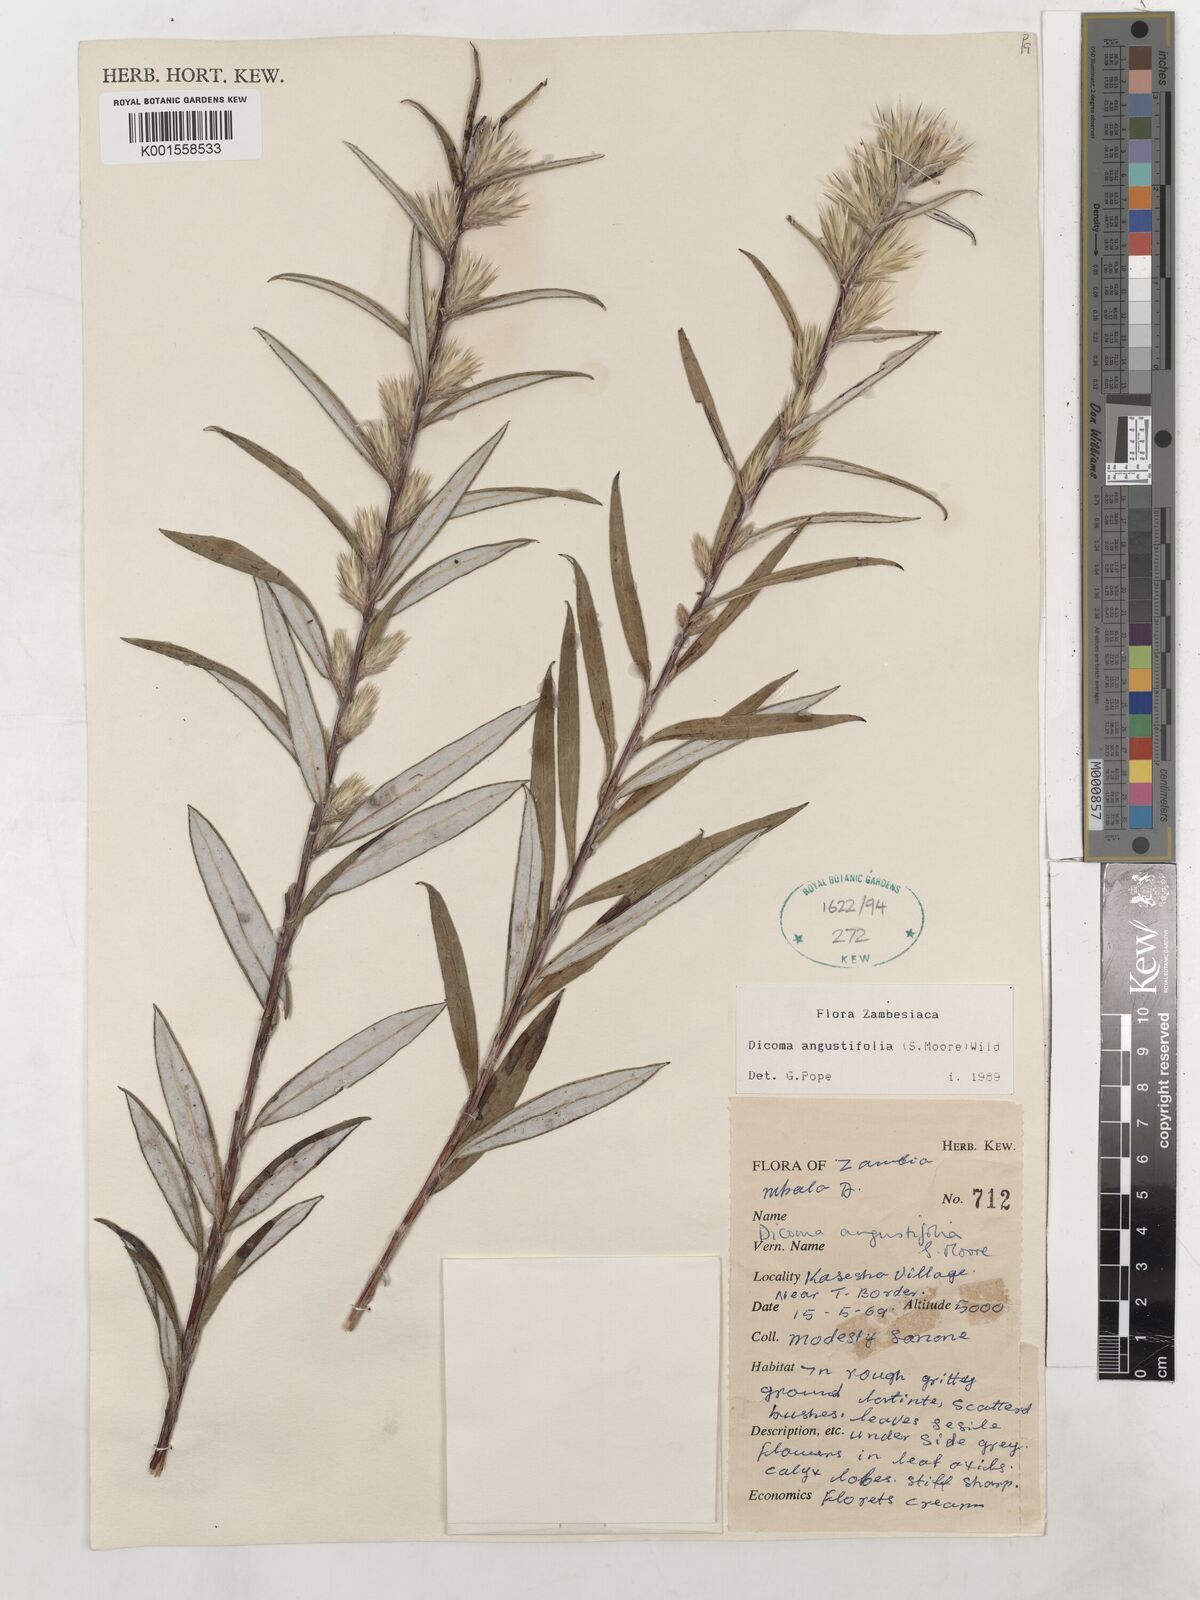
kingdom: Plantae
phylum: Tracheophyta
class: Magnoliopsida
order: Asterales
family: Asteraceae
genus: Macledium
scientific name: Macledium poggei
